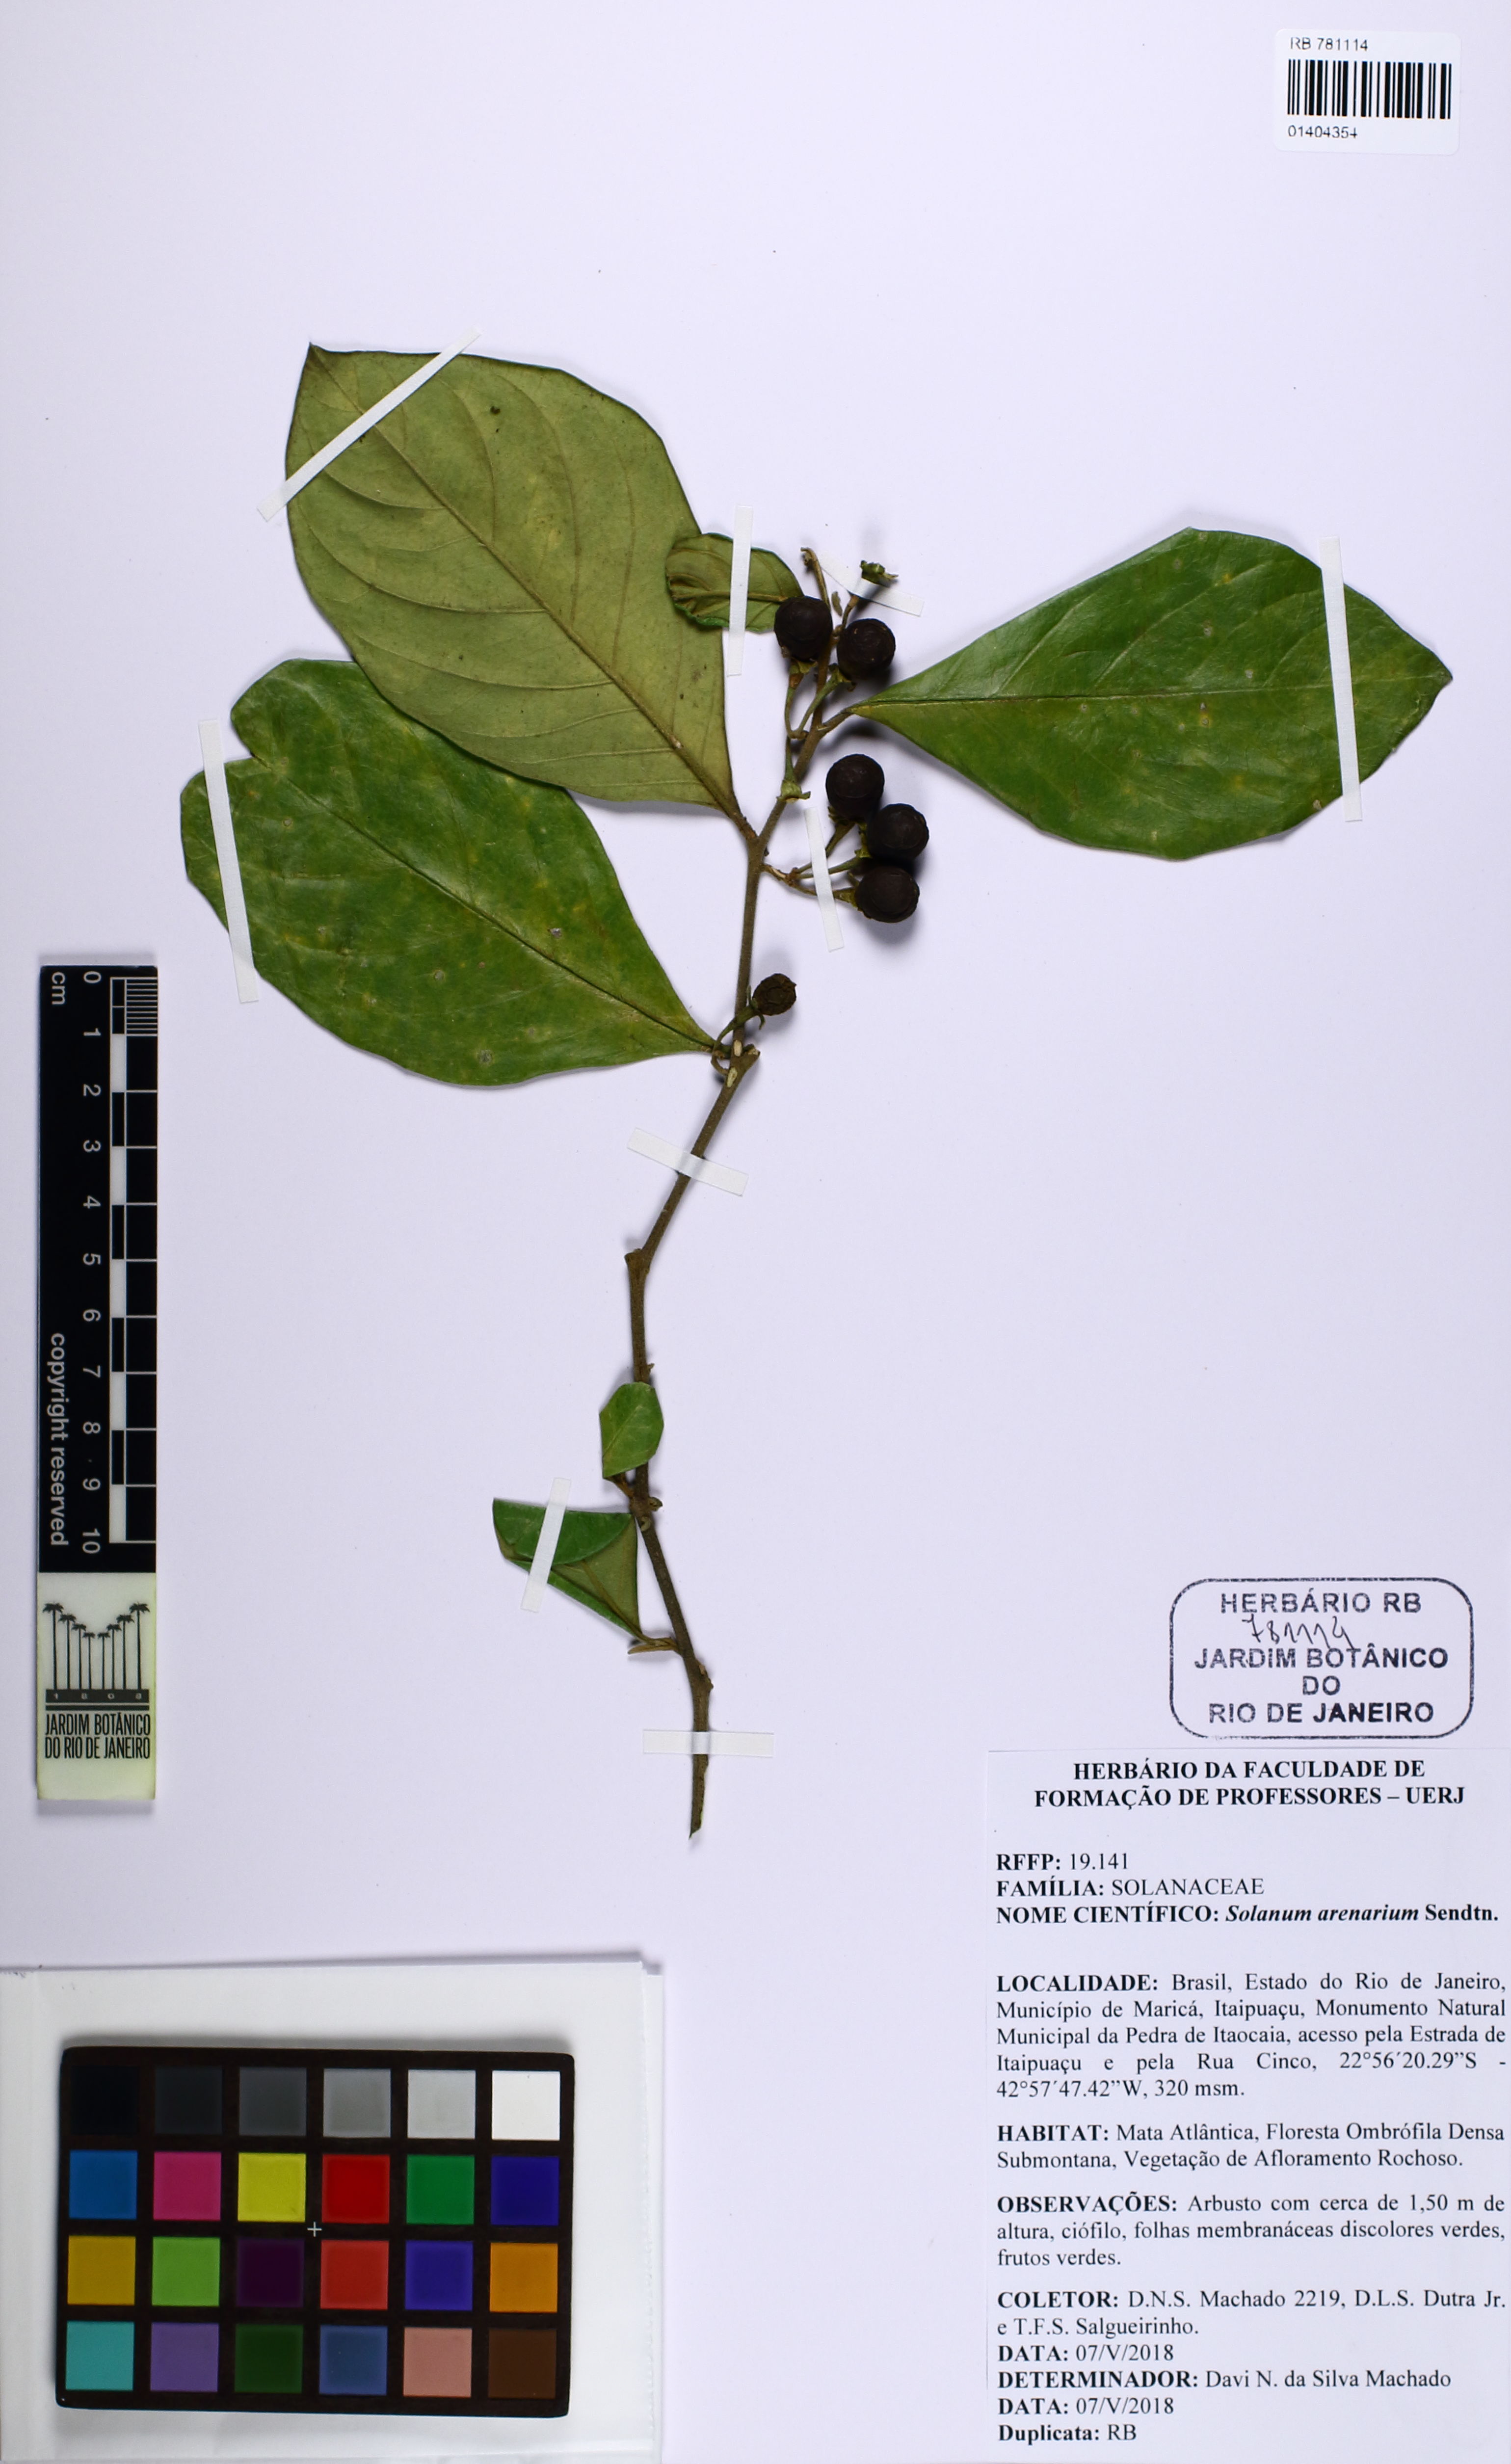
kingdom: Plantae
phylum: Tracheophyta
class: Magnoliopsida
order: Solanales
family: Solanaceae
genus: Solanum
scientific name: Solanum arenarium
